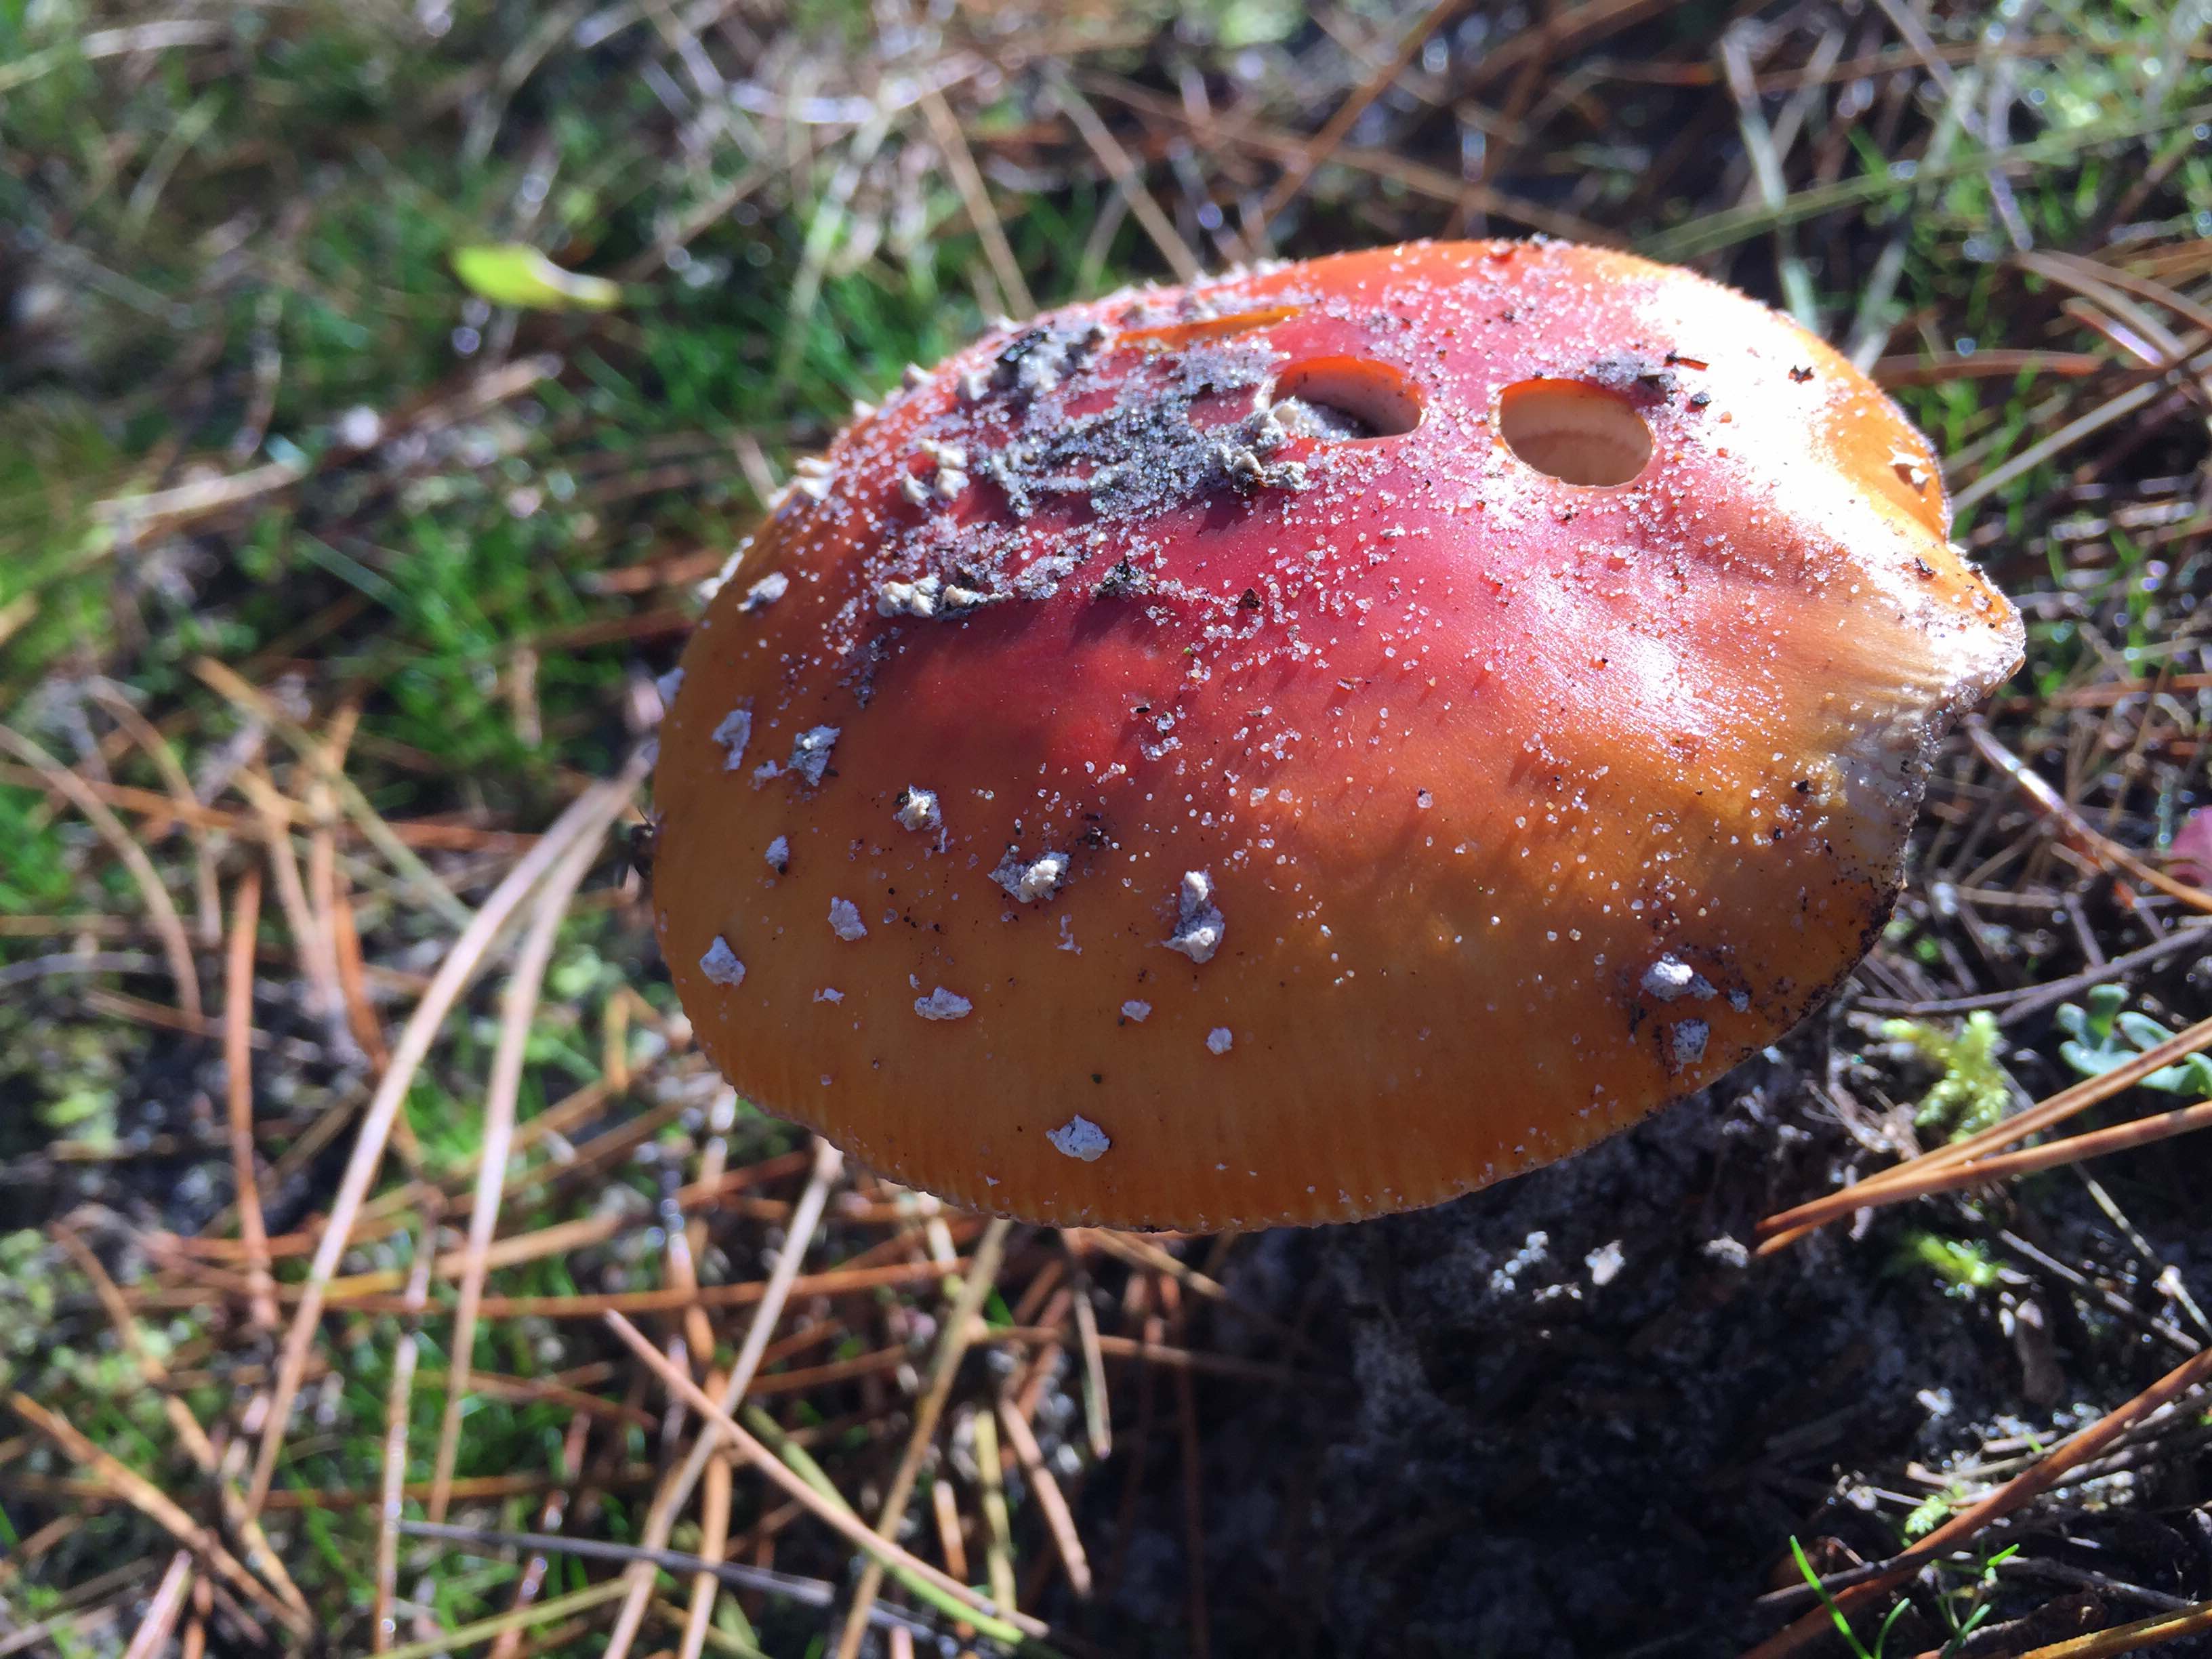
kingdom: Fungi
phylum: Basidiomycota
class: Agaricomycetes
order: Agaricales
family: Amanitaceae
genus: Amanita
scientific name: Amanita muscaria
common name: rød fluesvamp
